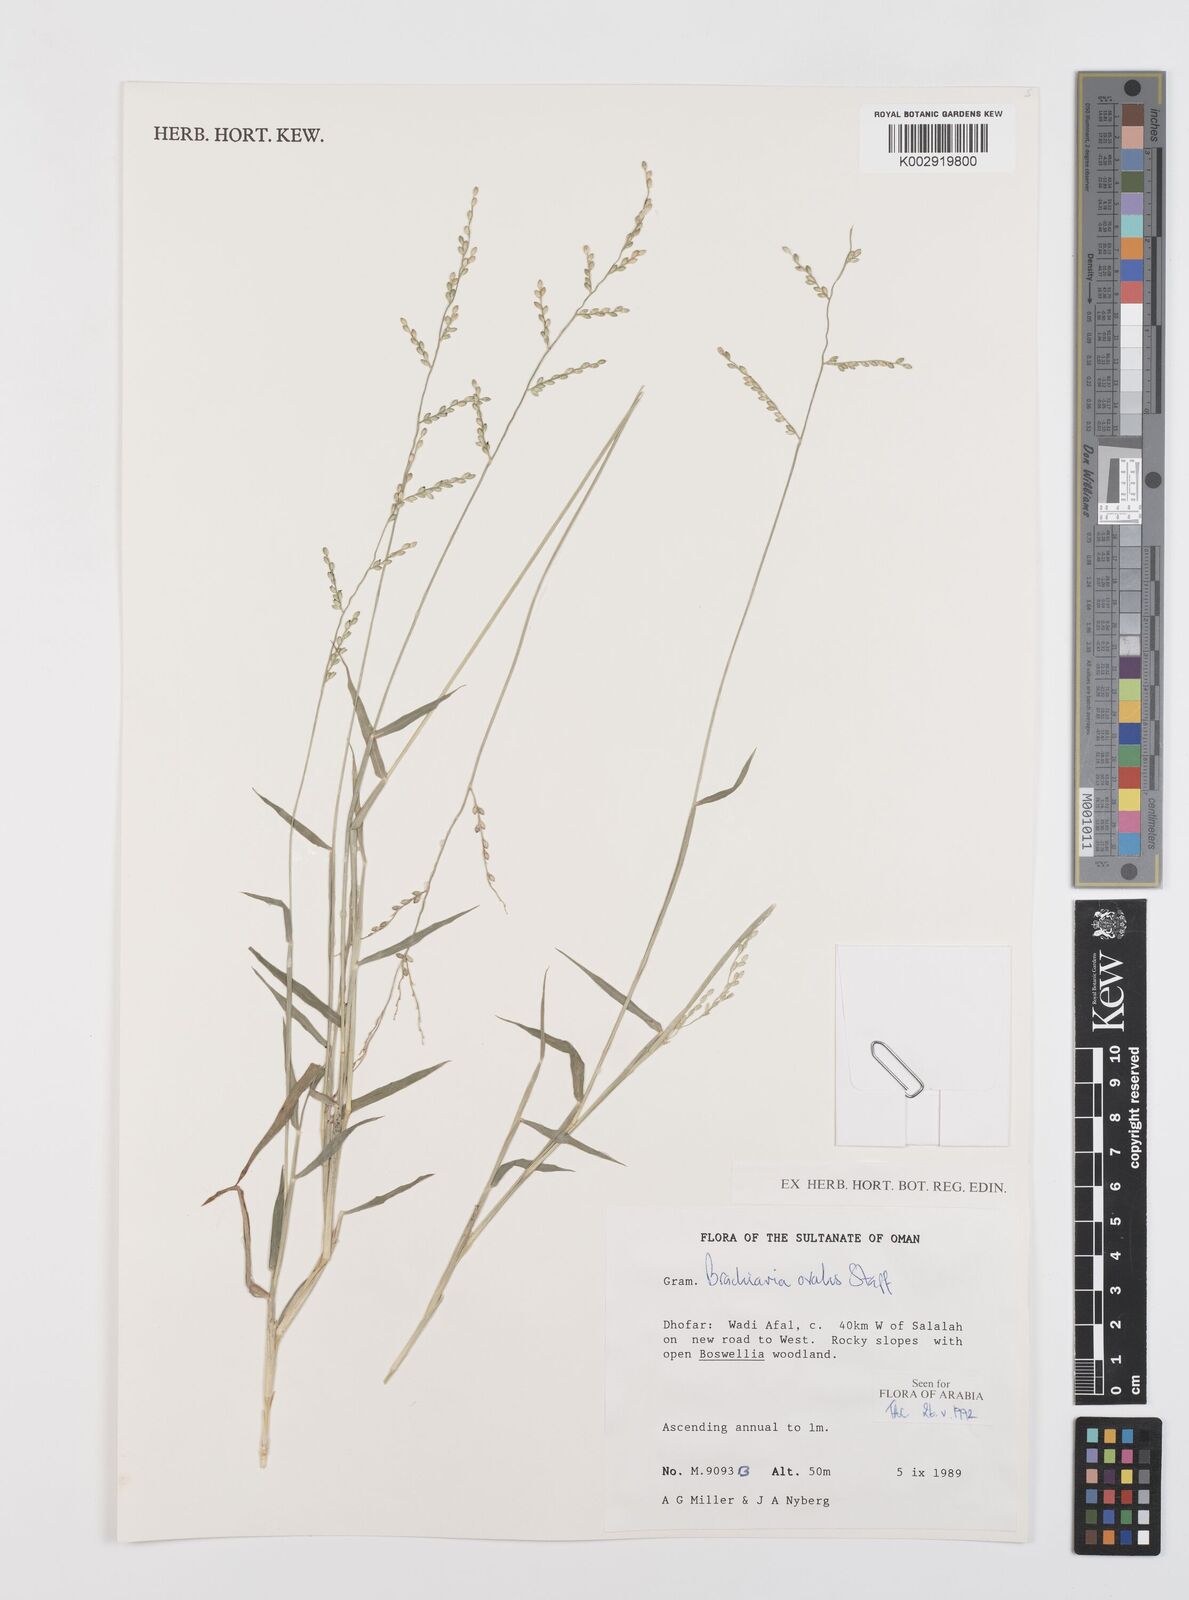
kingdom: Plantae
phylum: Tracheophyta
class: Liliopsida
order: Poales
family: Poaceae
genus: Urochloa
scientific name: Urochloa ovalis
